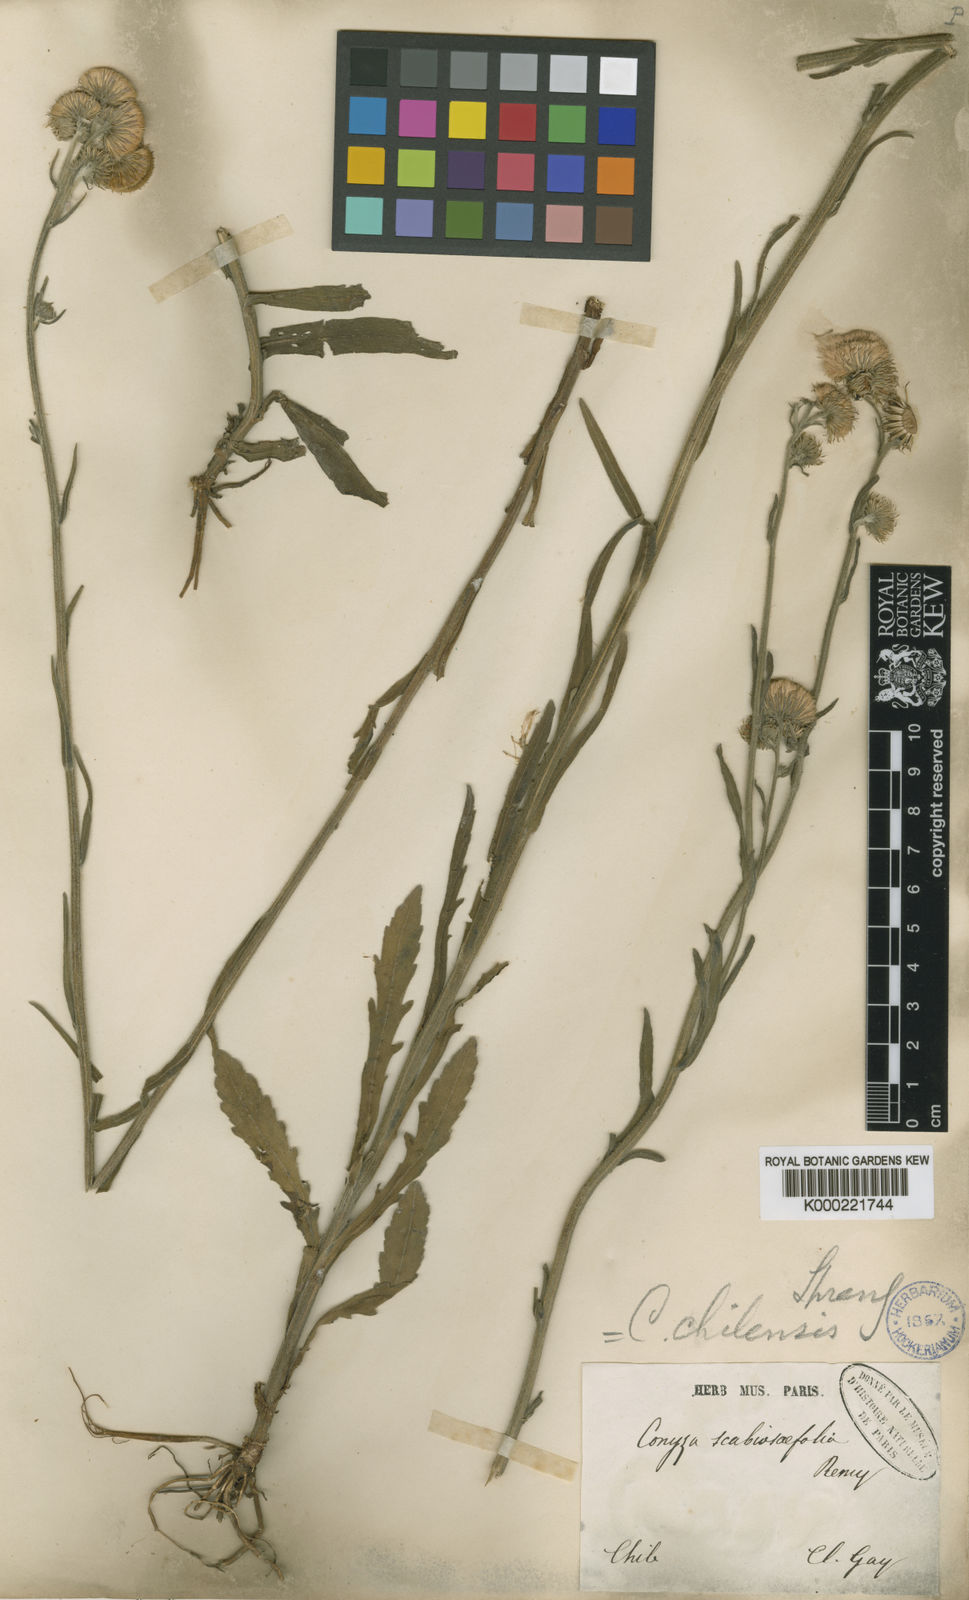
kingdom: Plantae
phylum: Tracheophyta
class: Magnoliopsida
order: Asterales
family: Asteraceae
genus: Erigeron
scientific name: Erigeron primulifolius
